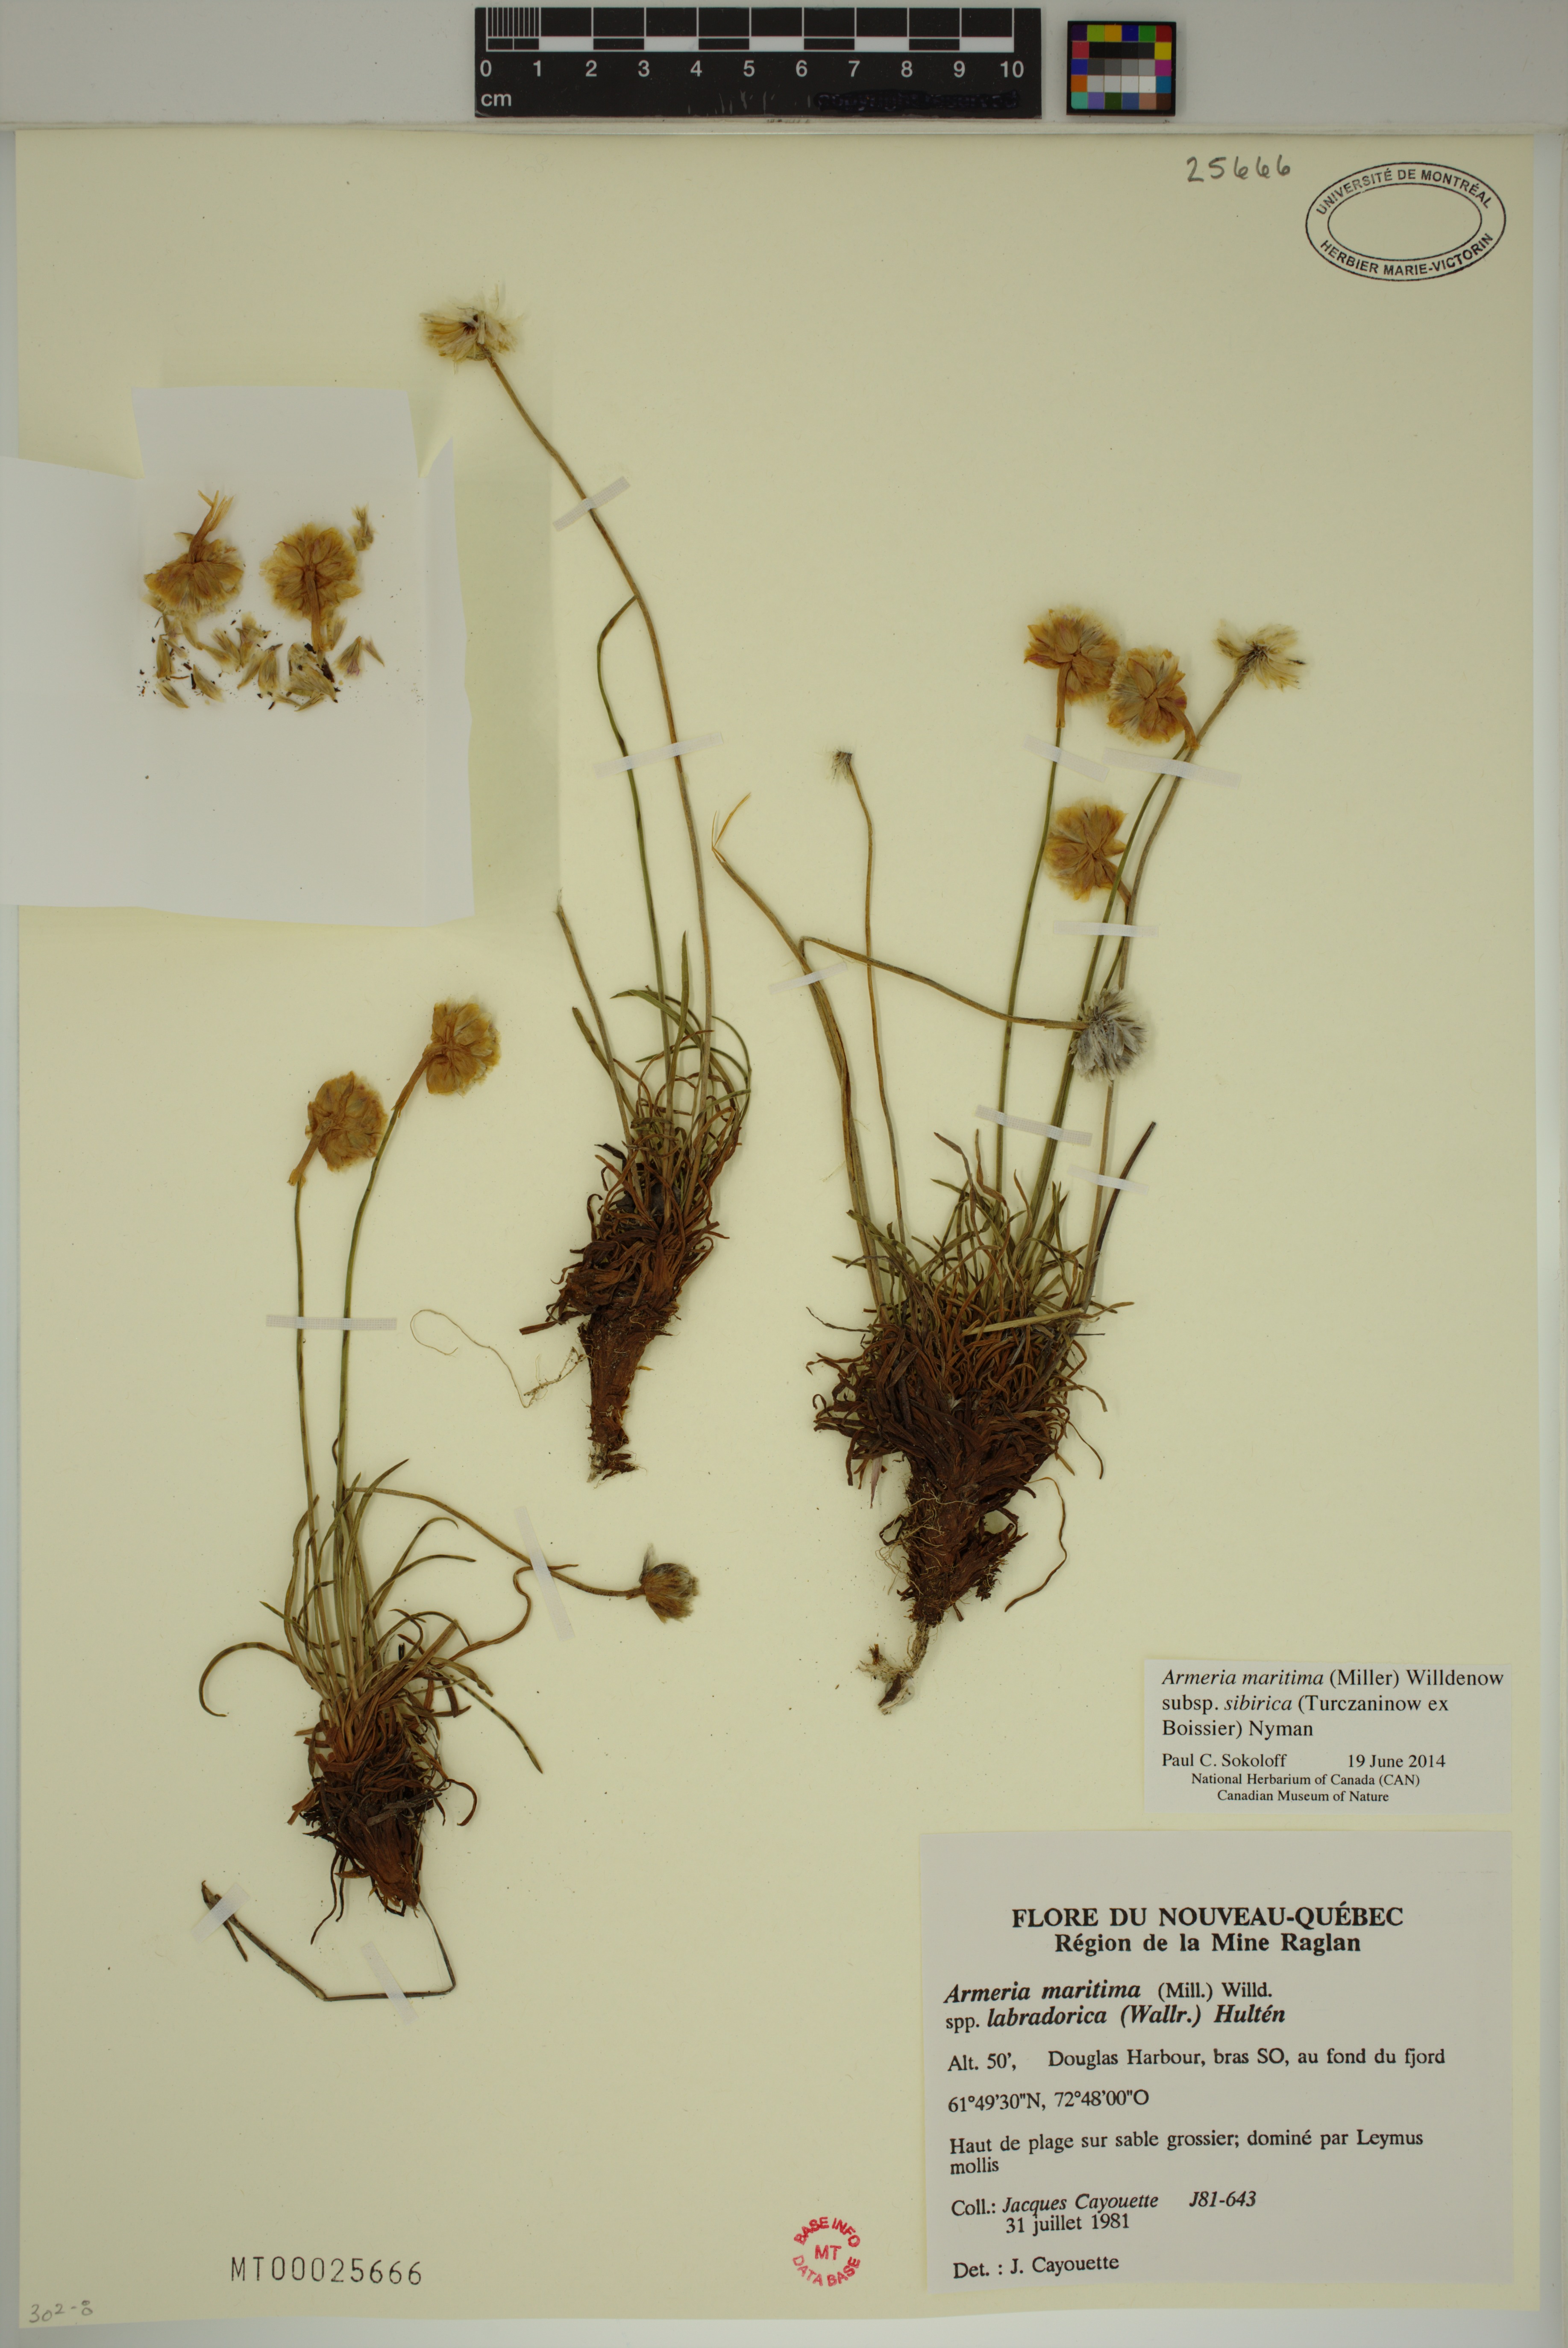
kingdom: Plantae
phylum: Tracheophyta
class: Magnoliopsida
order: Caryophyllales
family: Plumbaginaceae
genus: Armeria
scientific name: Armeria maritima
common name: Thrift
